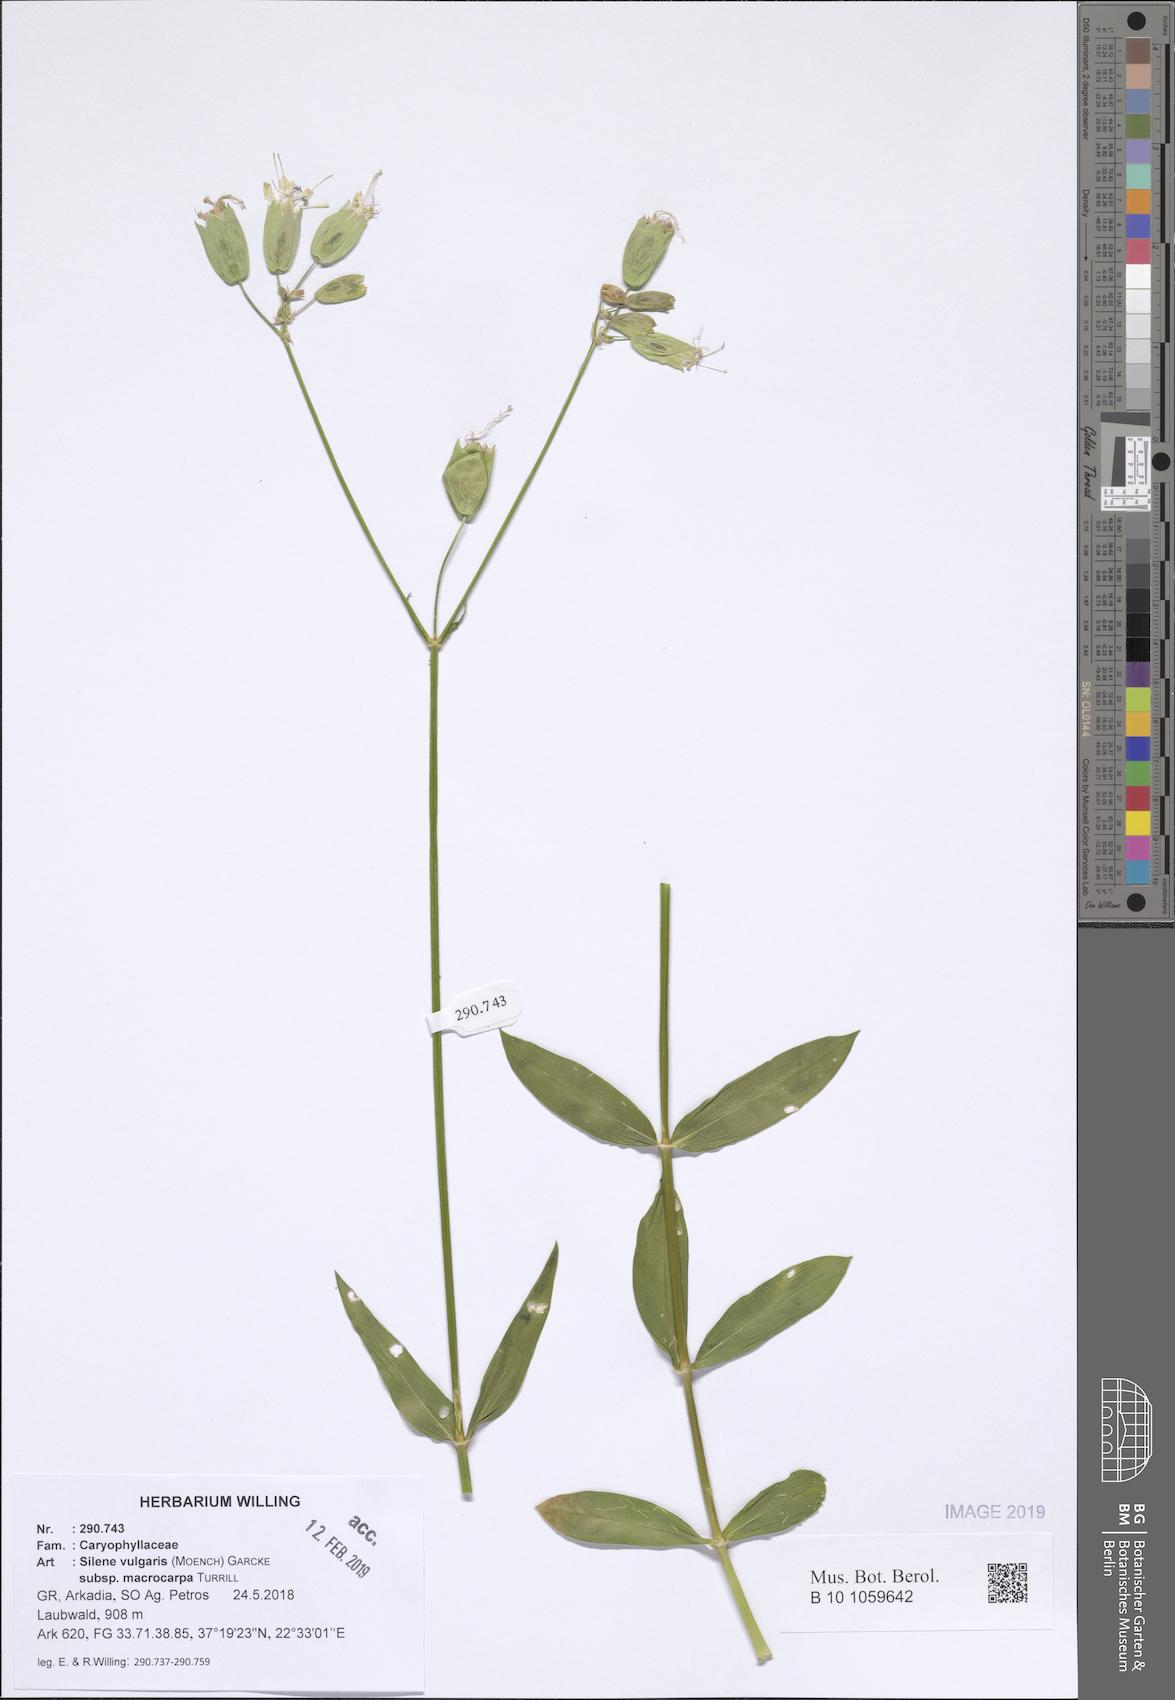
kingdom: Plantae
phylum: Tracheophyta
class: Magnoliopsida
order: Caryophyllales
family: Caryophyllaceae
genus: Silene
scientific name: Silene vulgaris
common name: Bladder campion
